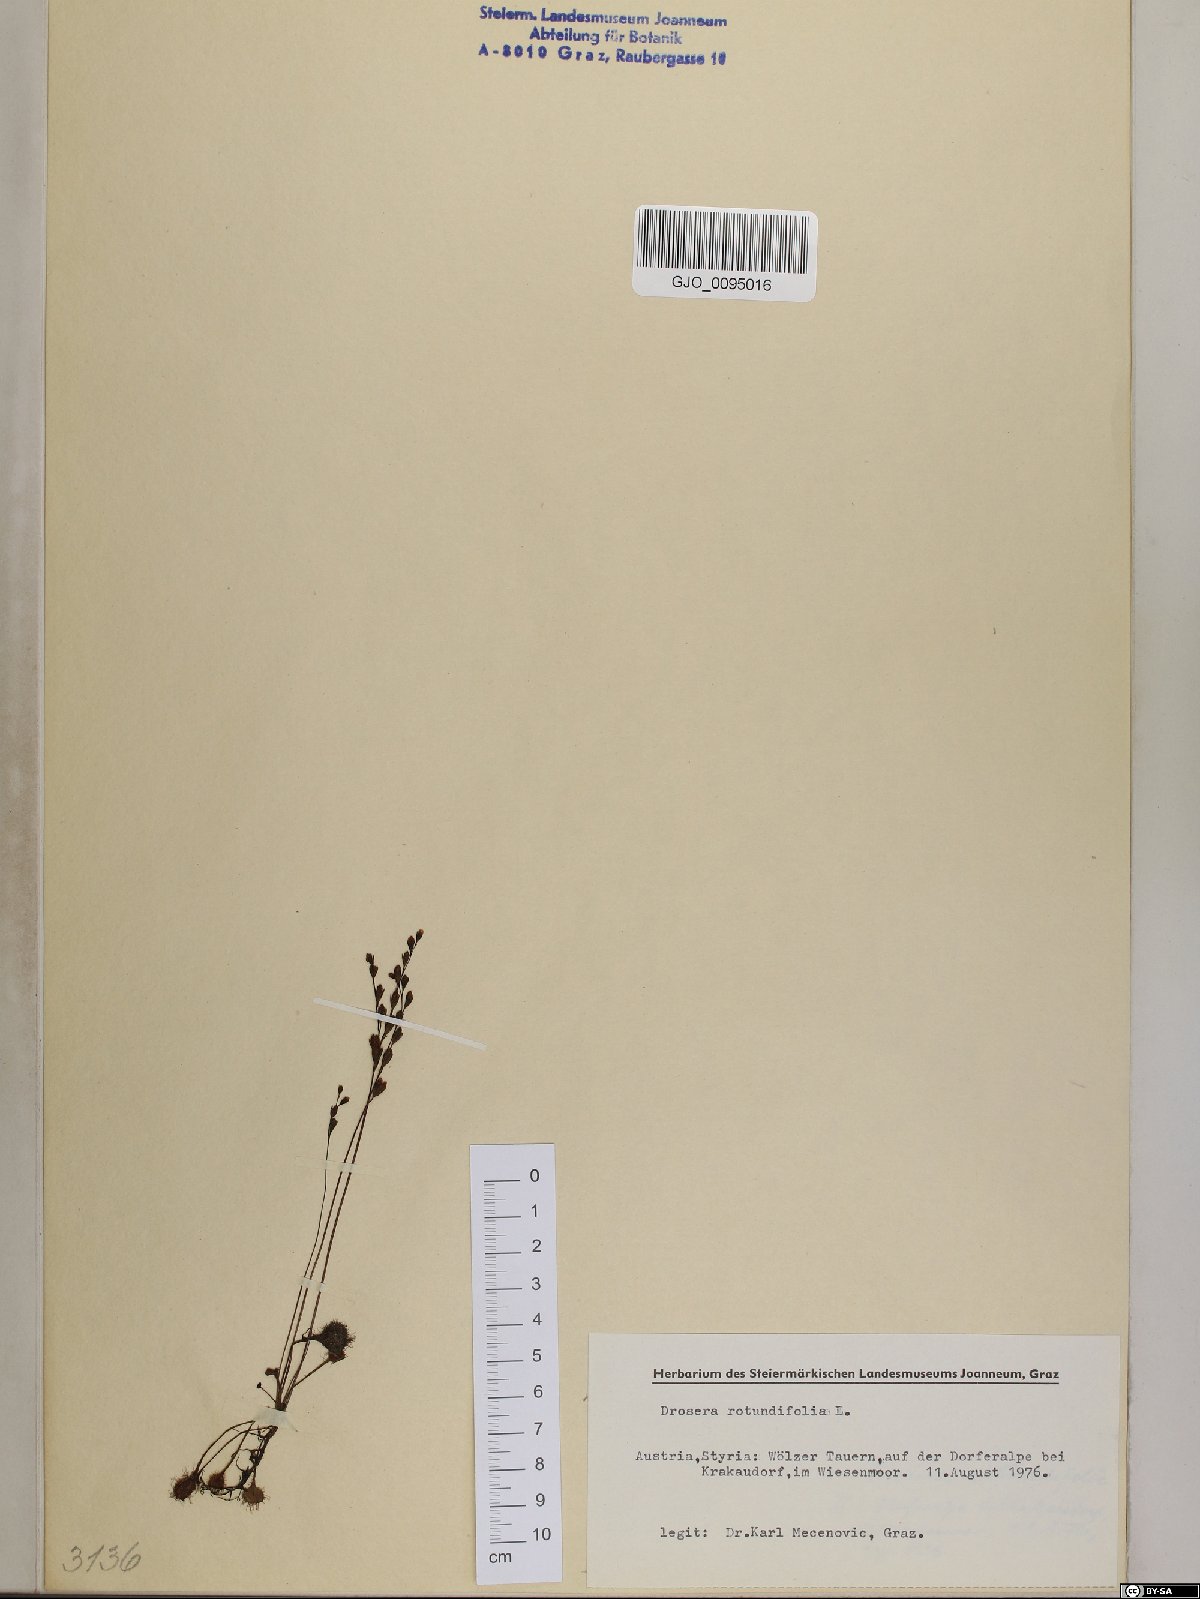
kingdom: Plantae
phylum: Tracheophyta
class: Magnoliopsida
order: Caryophyllales
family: Droseraceae
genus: Drosera
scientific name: Drosera rotundifolia
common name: Round-leaved sundew
